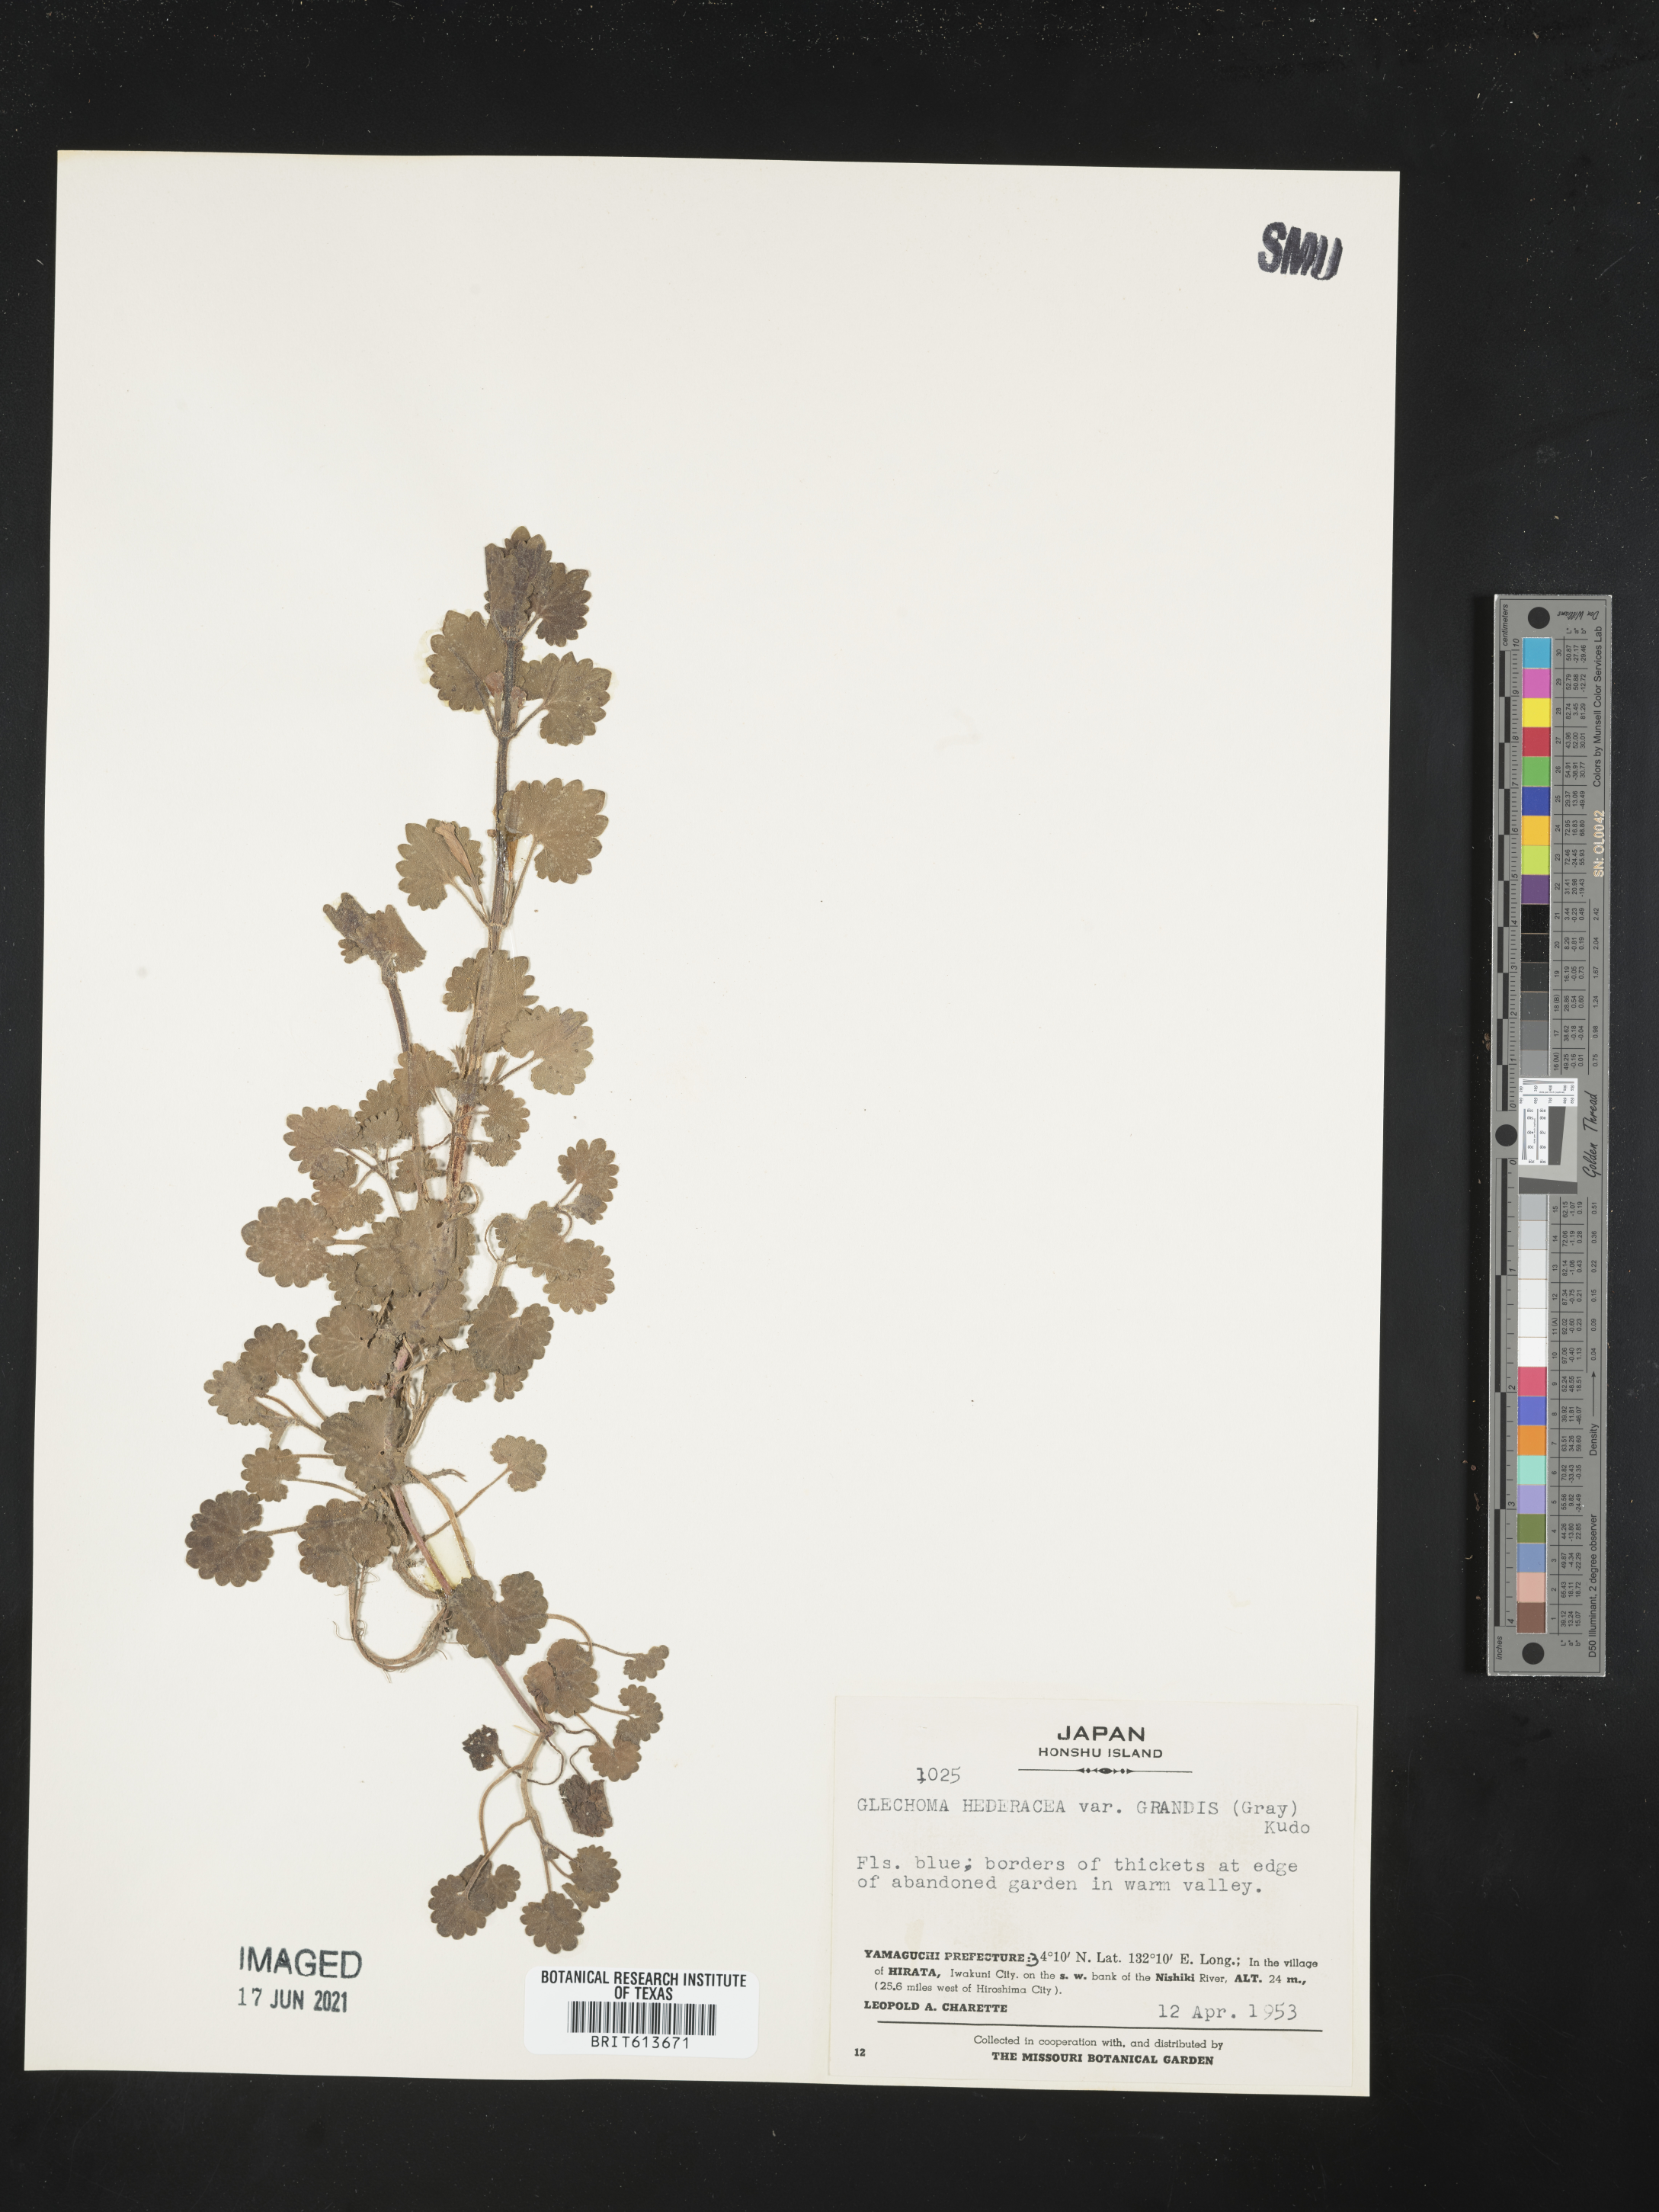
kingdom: Plantae
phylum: Tracheophyta
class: Magnoliopsida
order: Lamiales
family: Lamiaceae
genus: Glechoma
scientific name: Glechoma grandis
